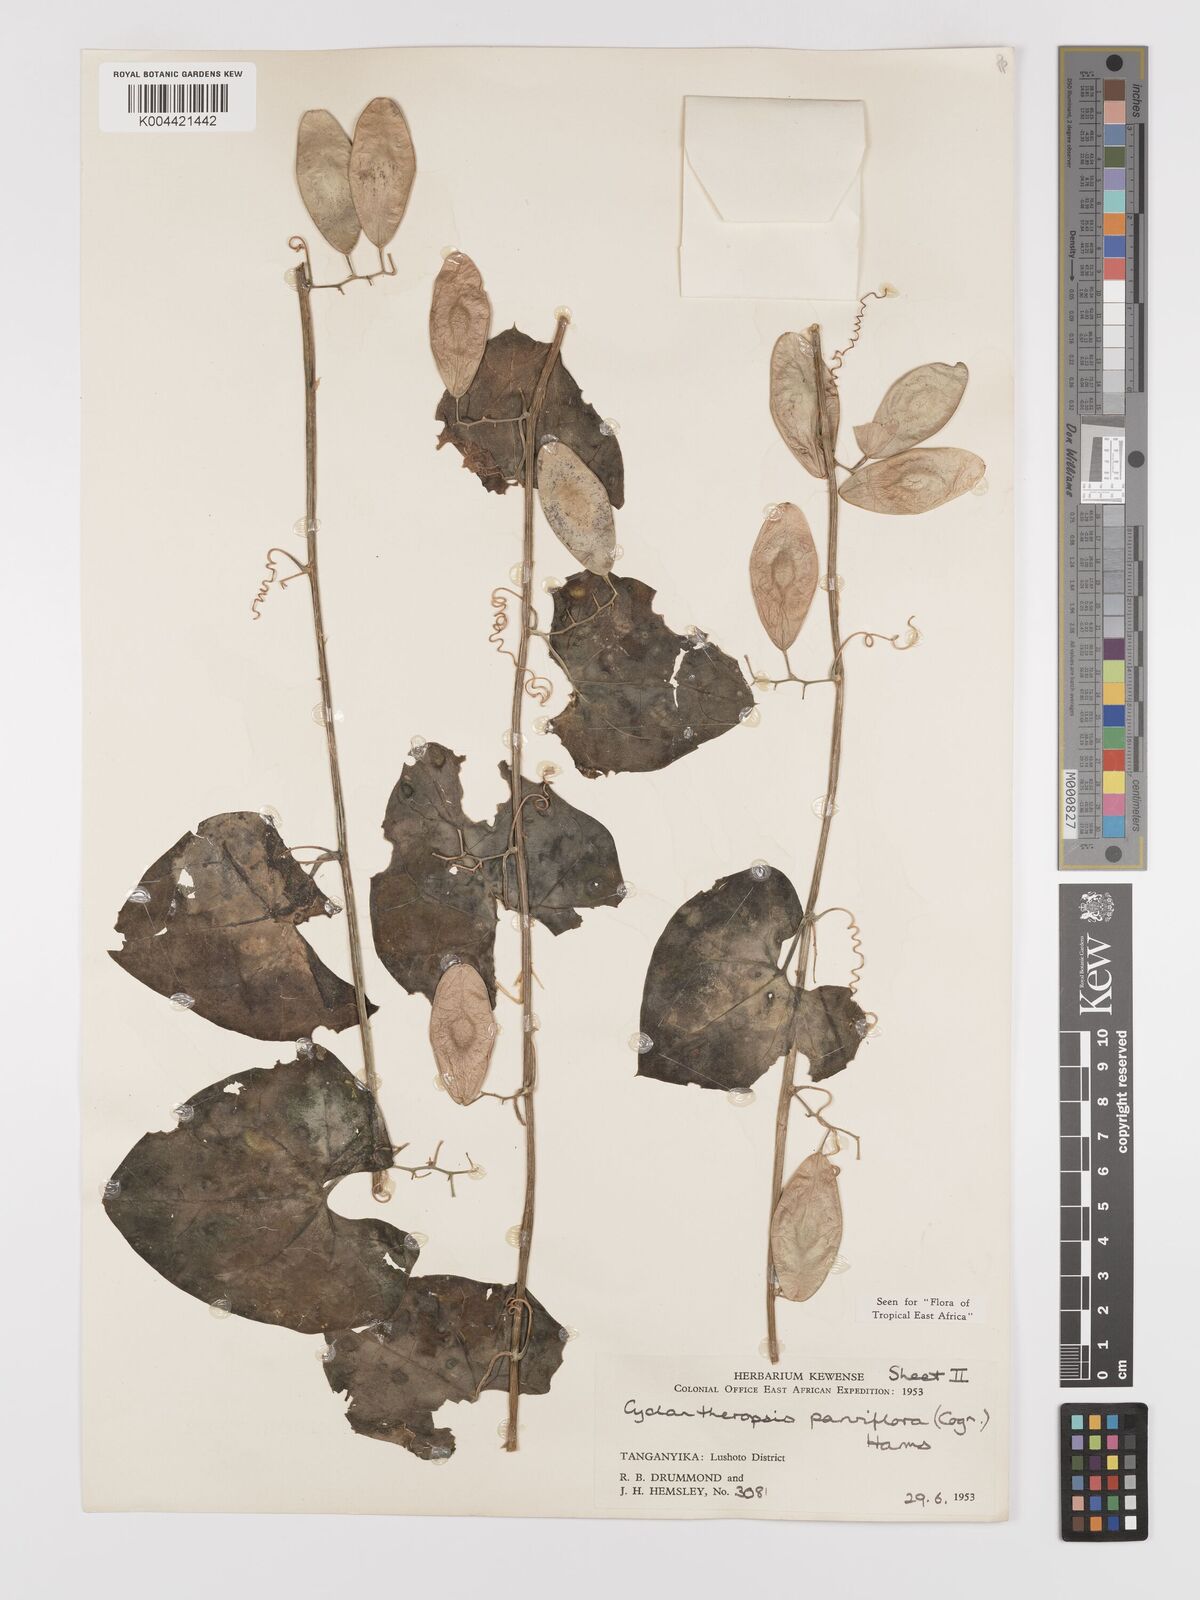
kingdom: Plantae
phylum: Tracheophyta
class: Magnoliopsida
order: Cucurbitales
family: Cucurbitaceae
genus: Cyclantheropsis
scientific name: Cyclantheropsis parviflora
